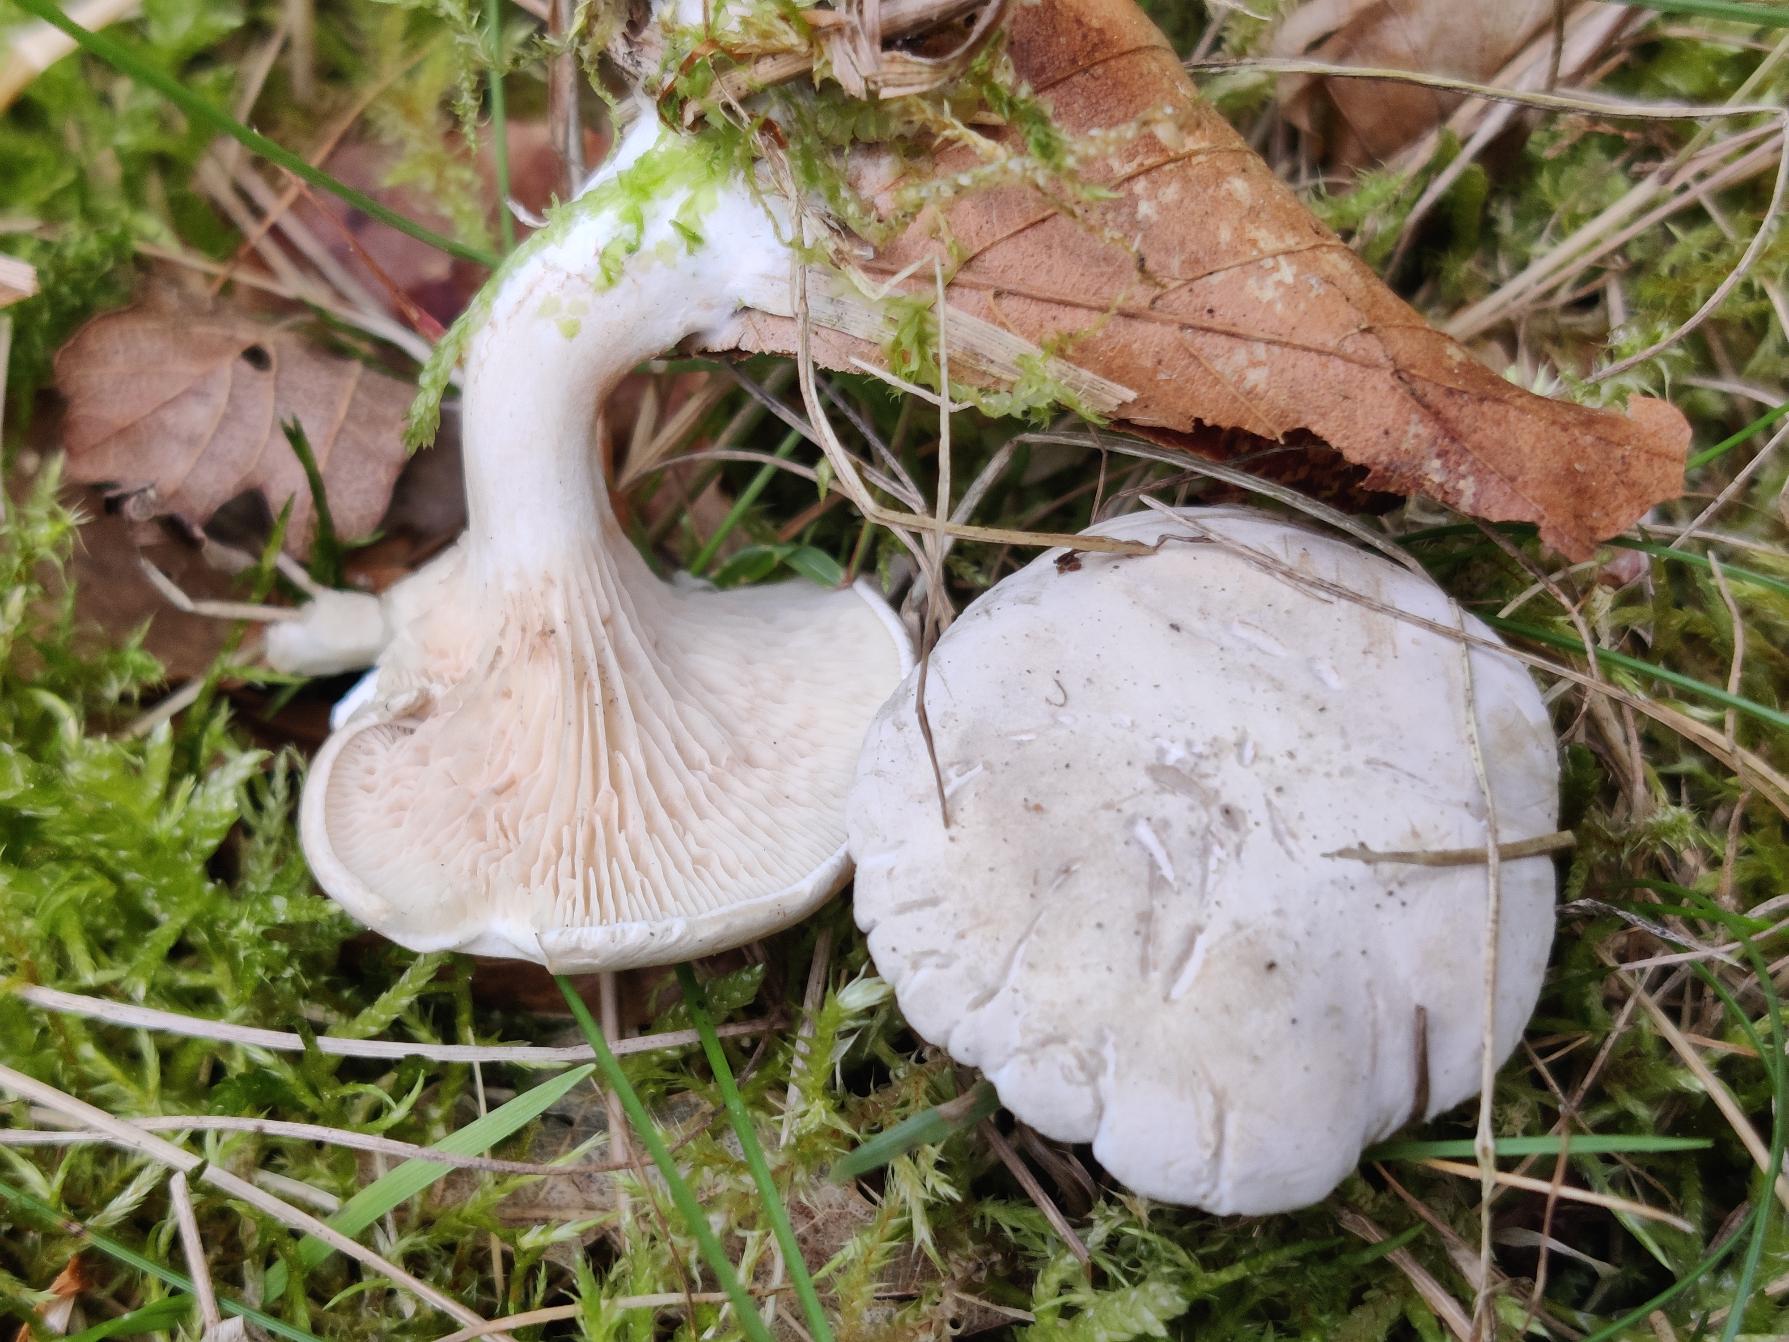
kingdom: Fungi
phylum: Basidiomycota
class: Agaricomycetes
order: Agaricales
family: Entolomataceae
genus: Clitopilus
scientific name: Clitopilus prunulus
